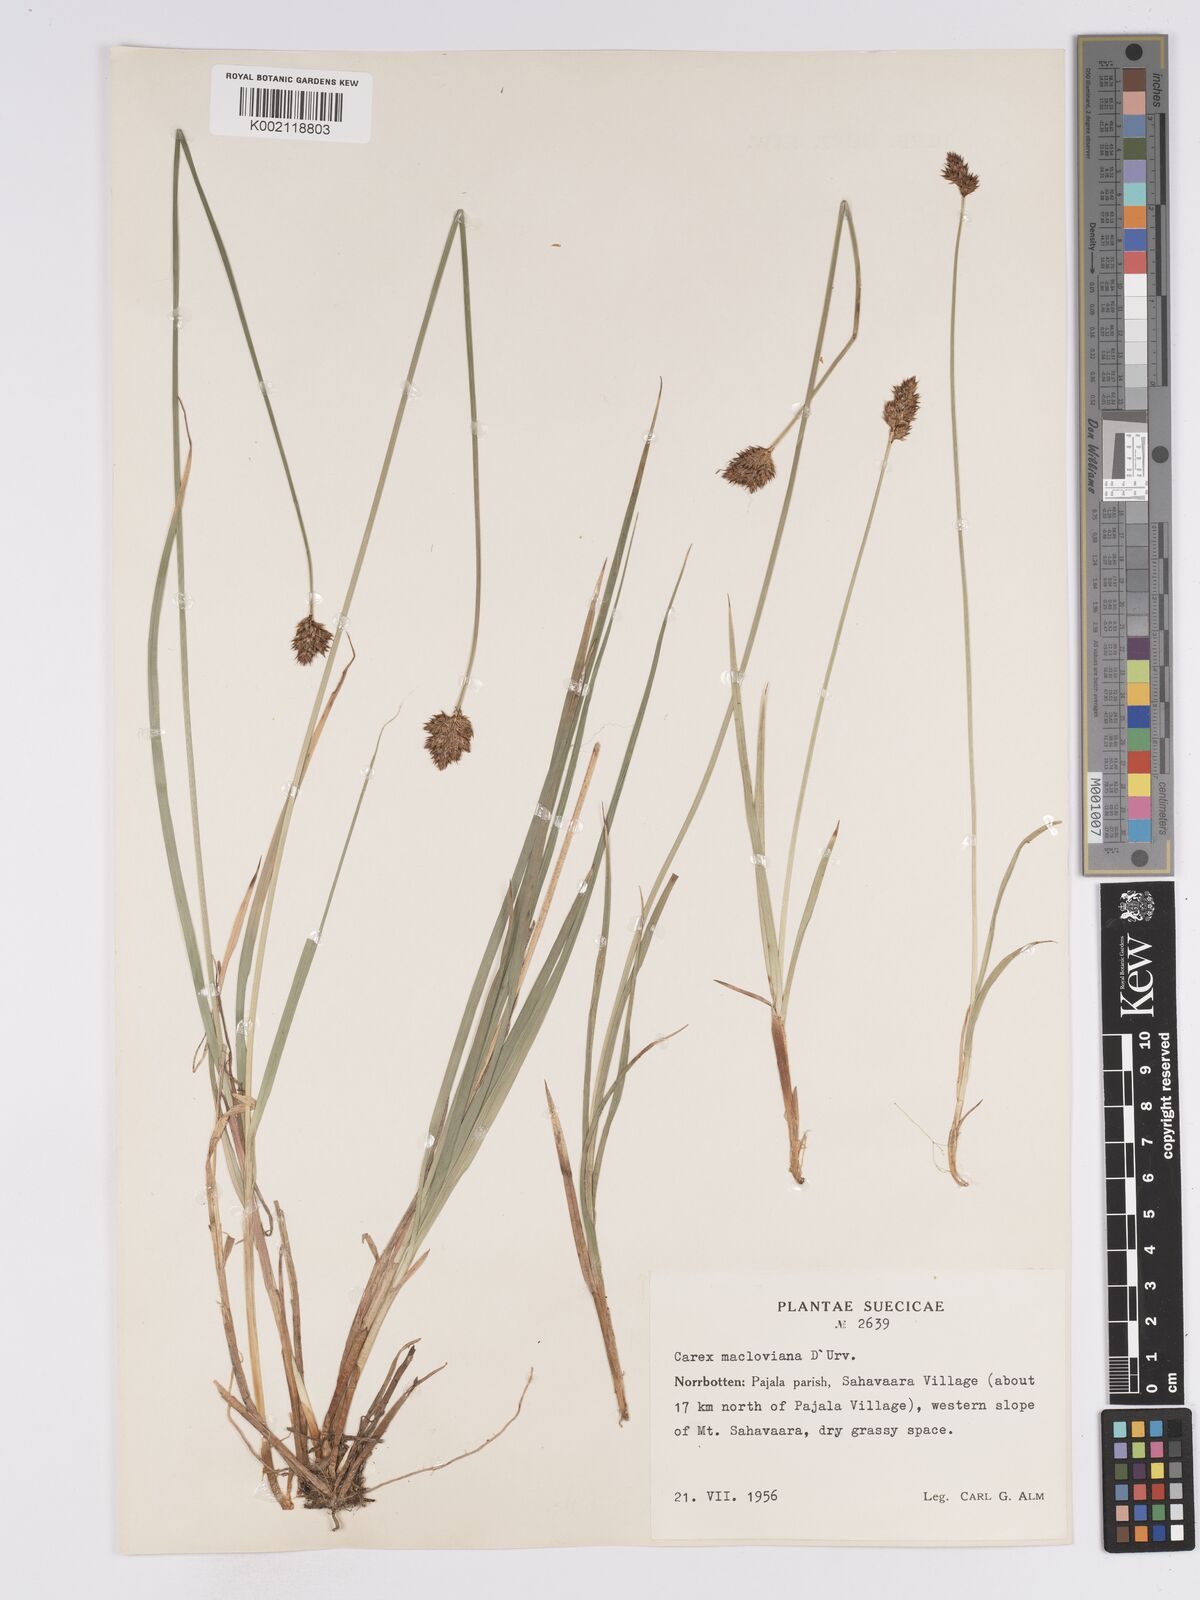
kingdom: Plantae
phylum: Tracheophyta
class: Liliopsida
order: Poales
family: Cyperaceae
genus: Carex
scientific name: Carex macloviana
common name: Falkland island sedge
